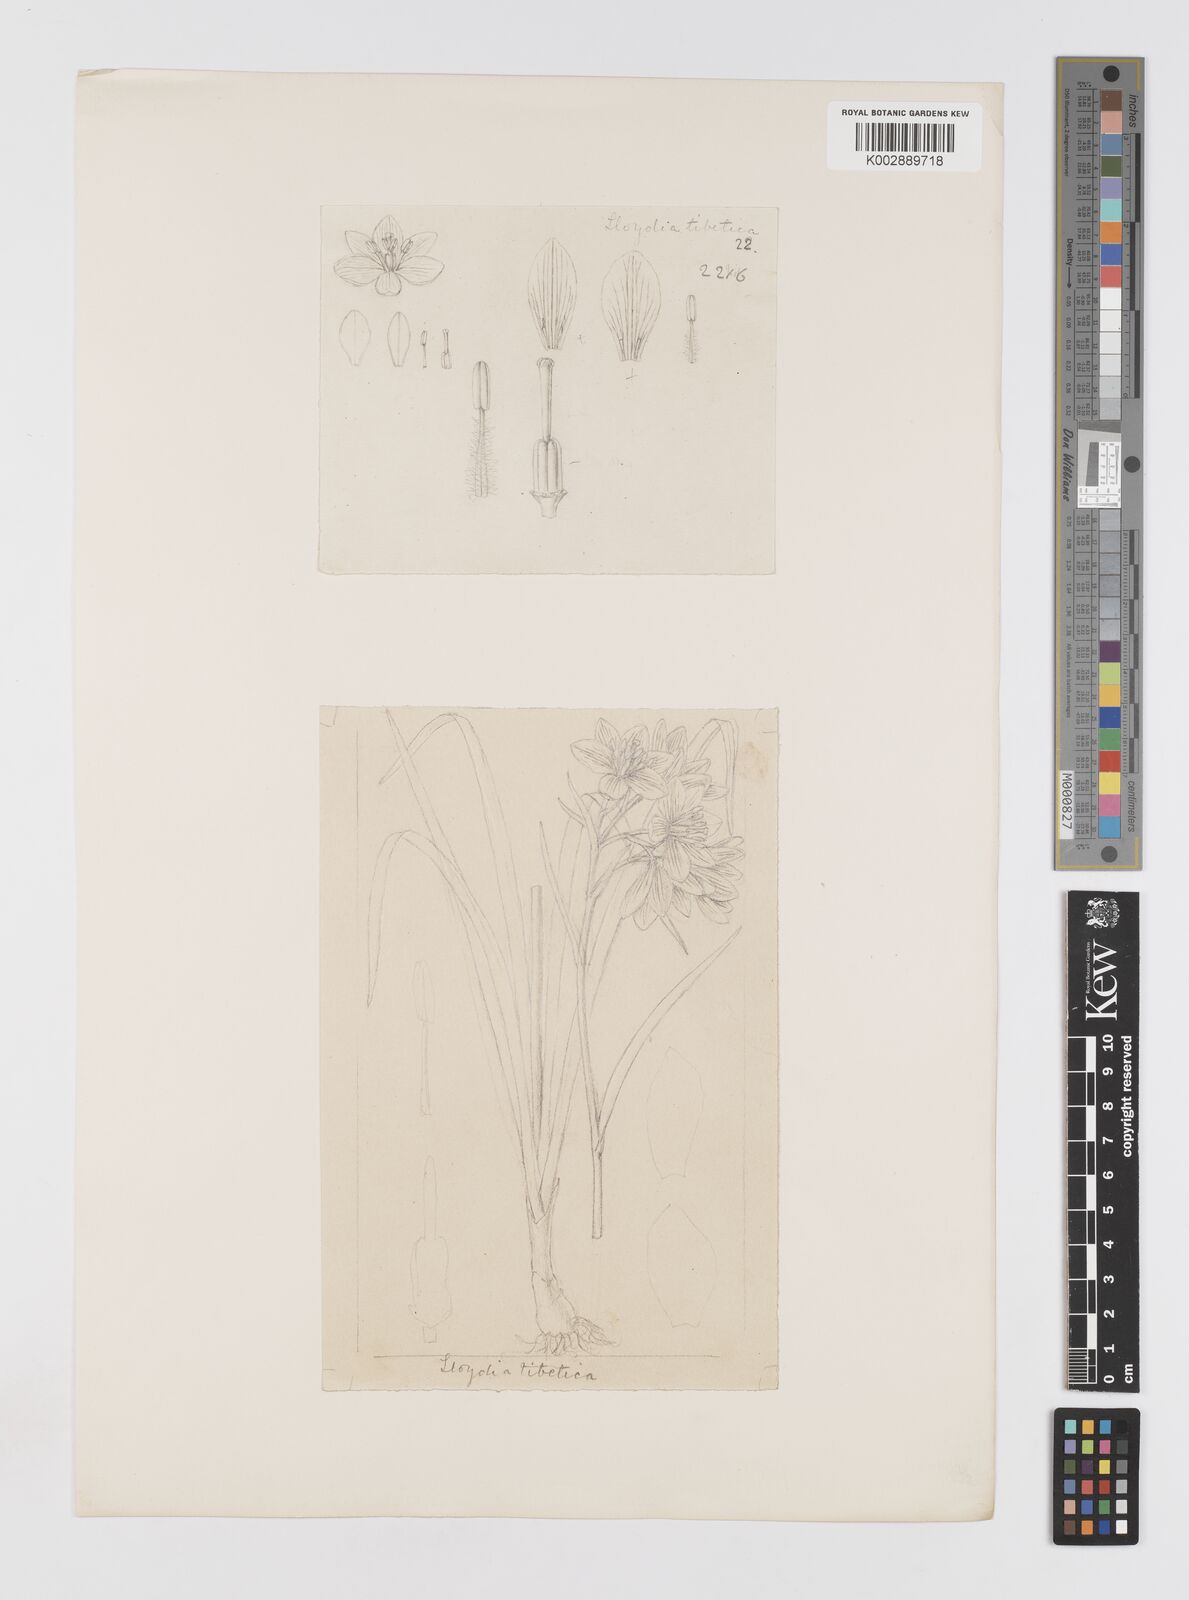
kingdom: Plantae
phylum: Tracheophyta
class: Liliopsida
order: Liliales
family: Liliaceae
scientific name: Liliaceae
